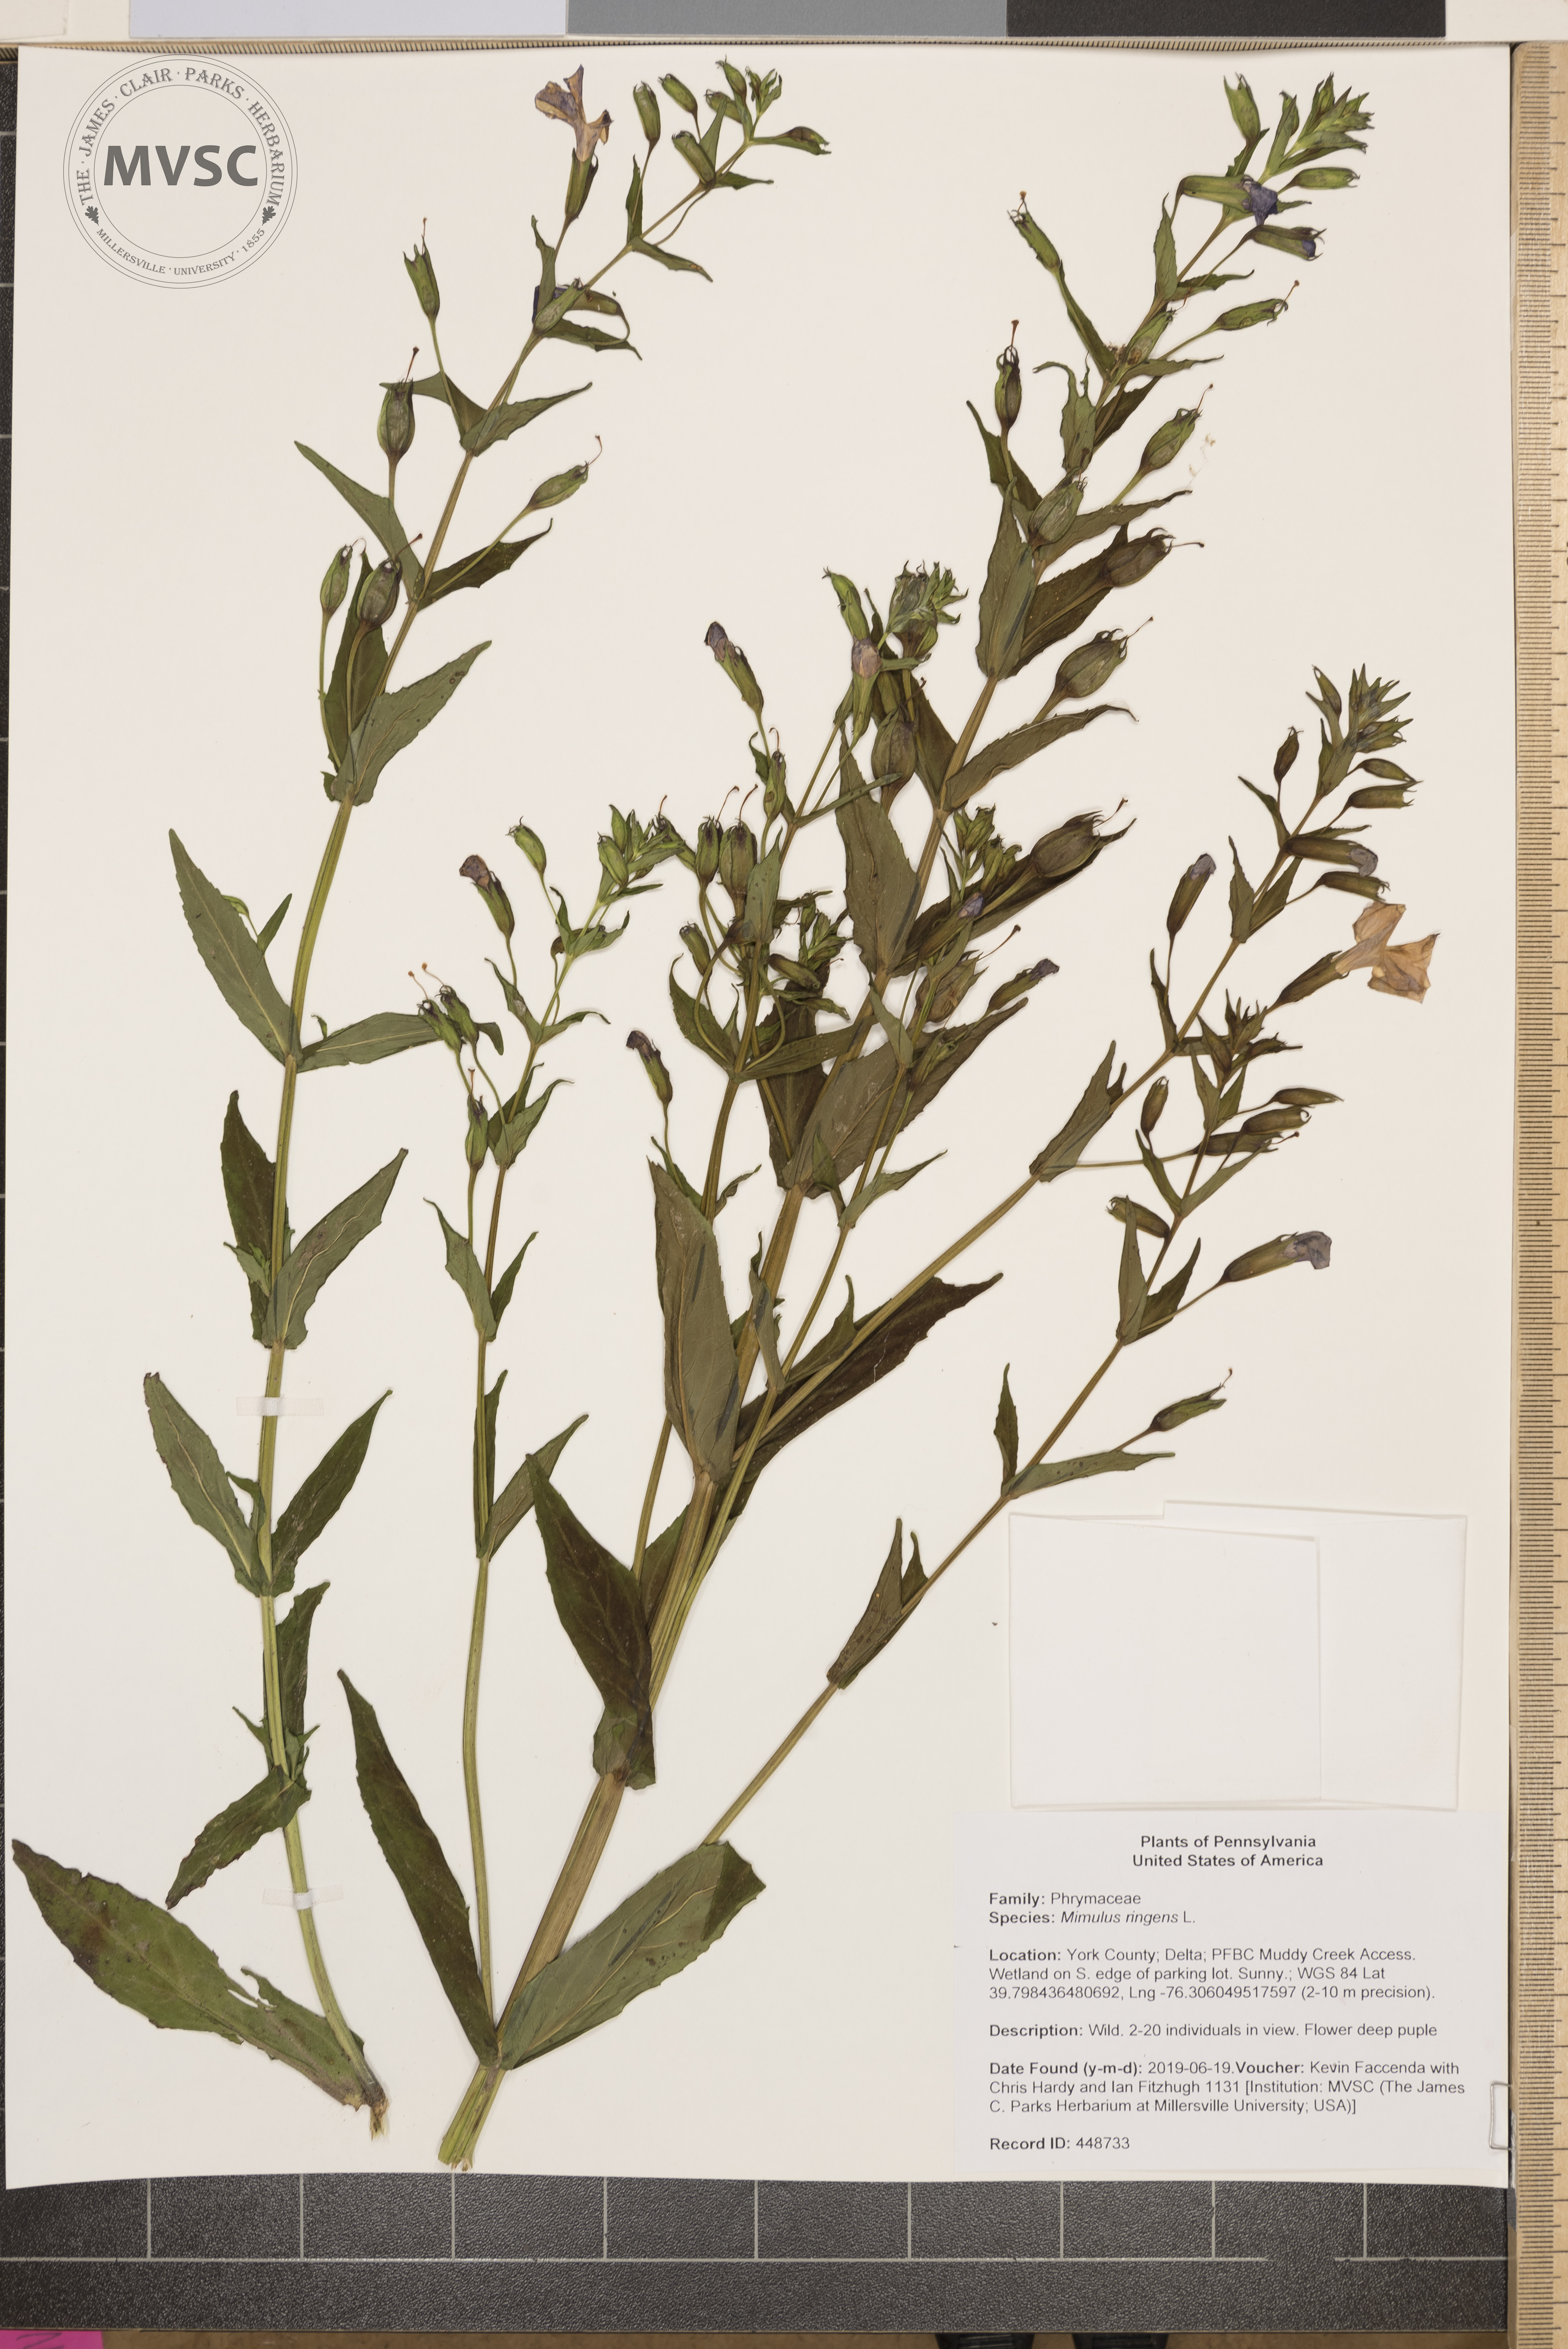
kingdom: Plantae
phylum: Tracheophyta
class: Magnoliopsida
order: Lamiales
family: Phrymaceae
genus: Mimulus
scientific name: Mimulus ringens
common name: Allegheny monkeyflower
